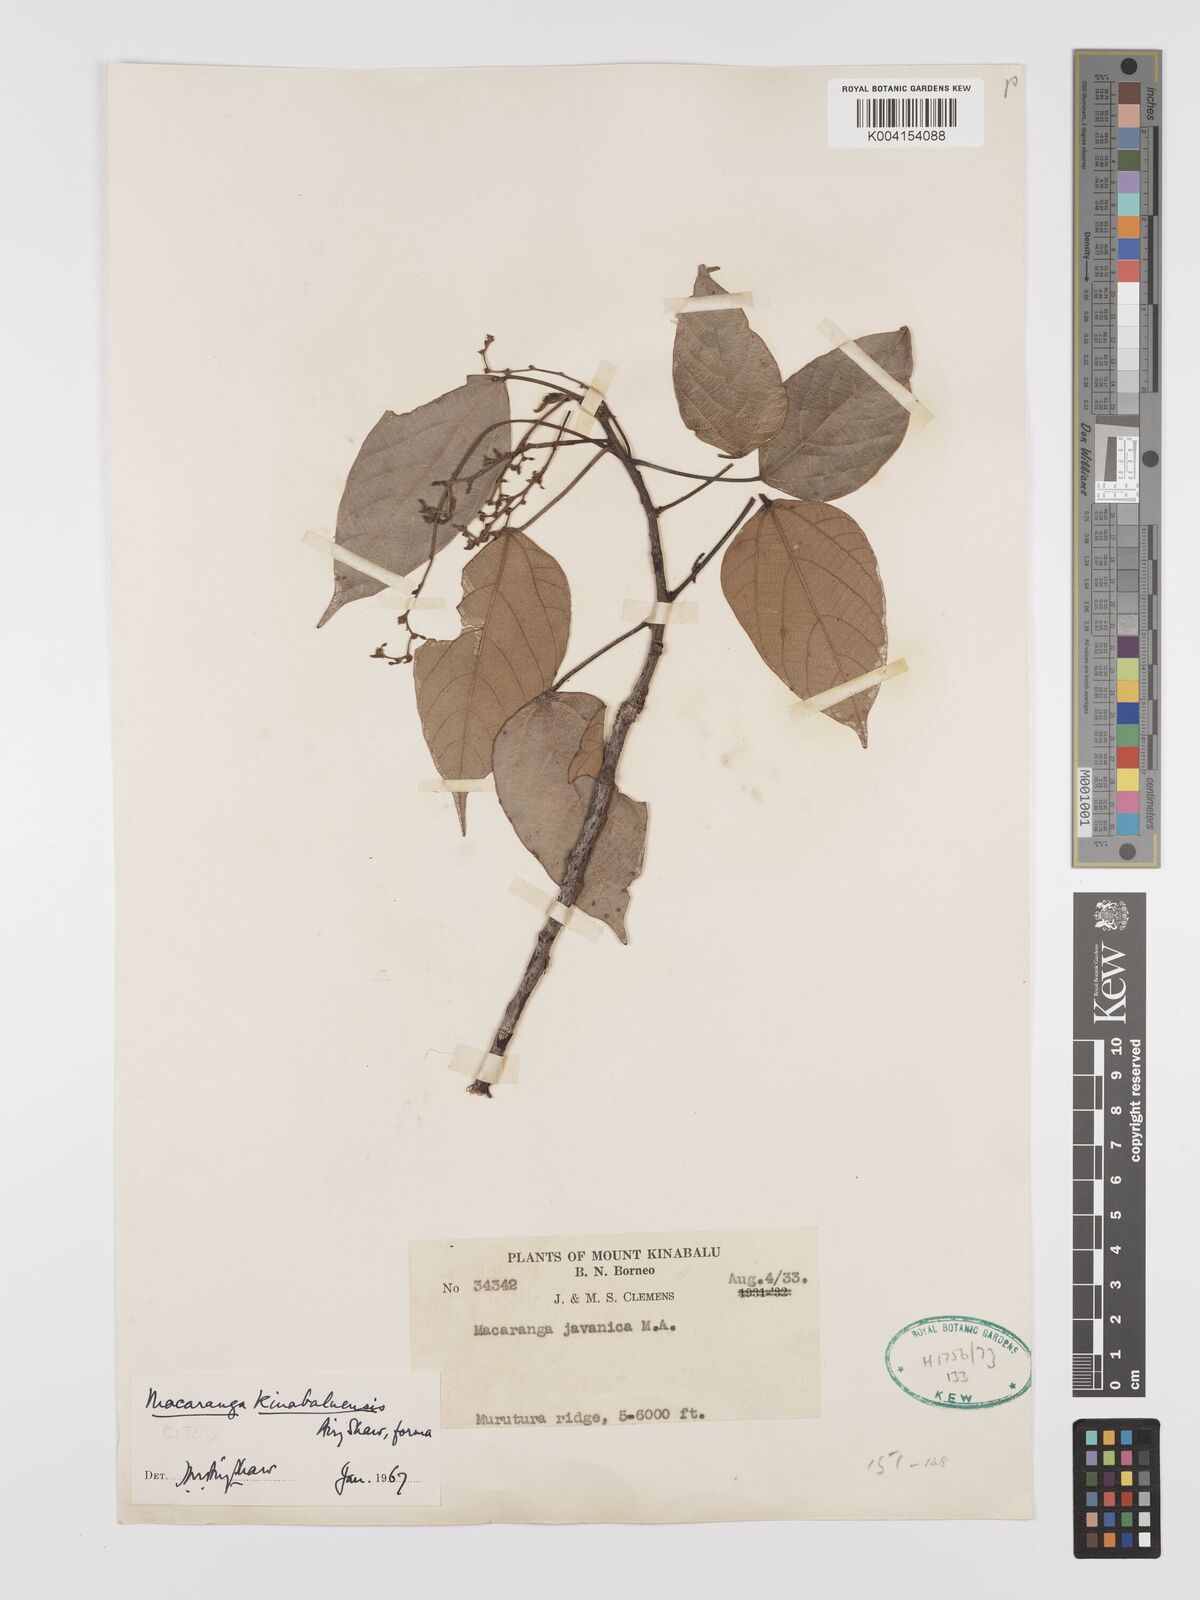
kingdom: Plantae
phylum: Tracheophyta
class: Magnoliopsida
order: Malpighiales
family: Euphorbiaceae
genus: Macaranga
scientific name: Macaranga kinabaluensis
